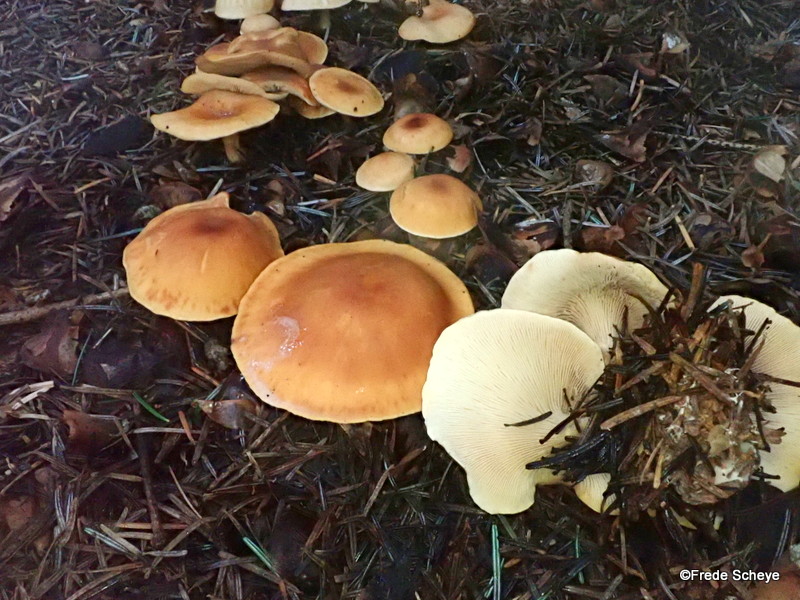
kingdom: Fungi
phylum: Basidiomycota
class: Agaricomycetes
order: Agaricales
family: Tricholomataceae
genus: Paralepista
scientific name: Paralepista flaccida
